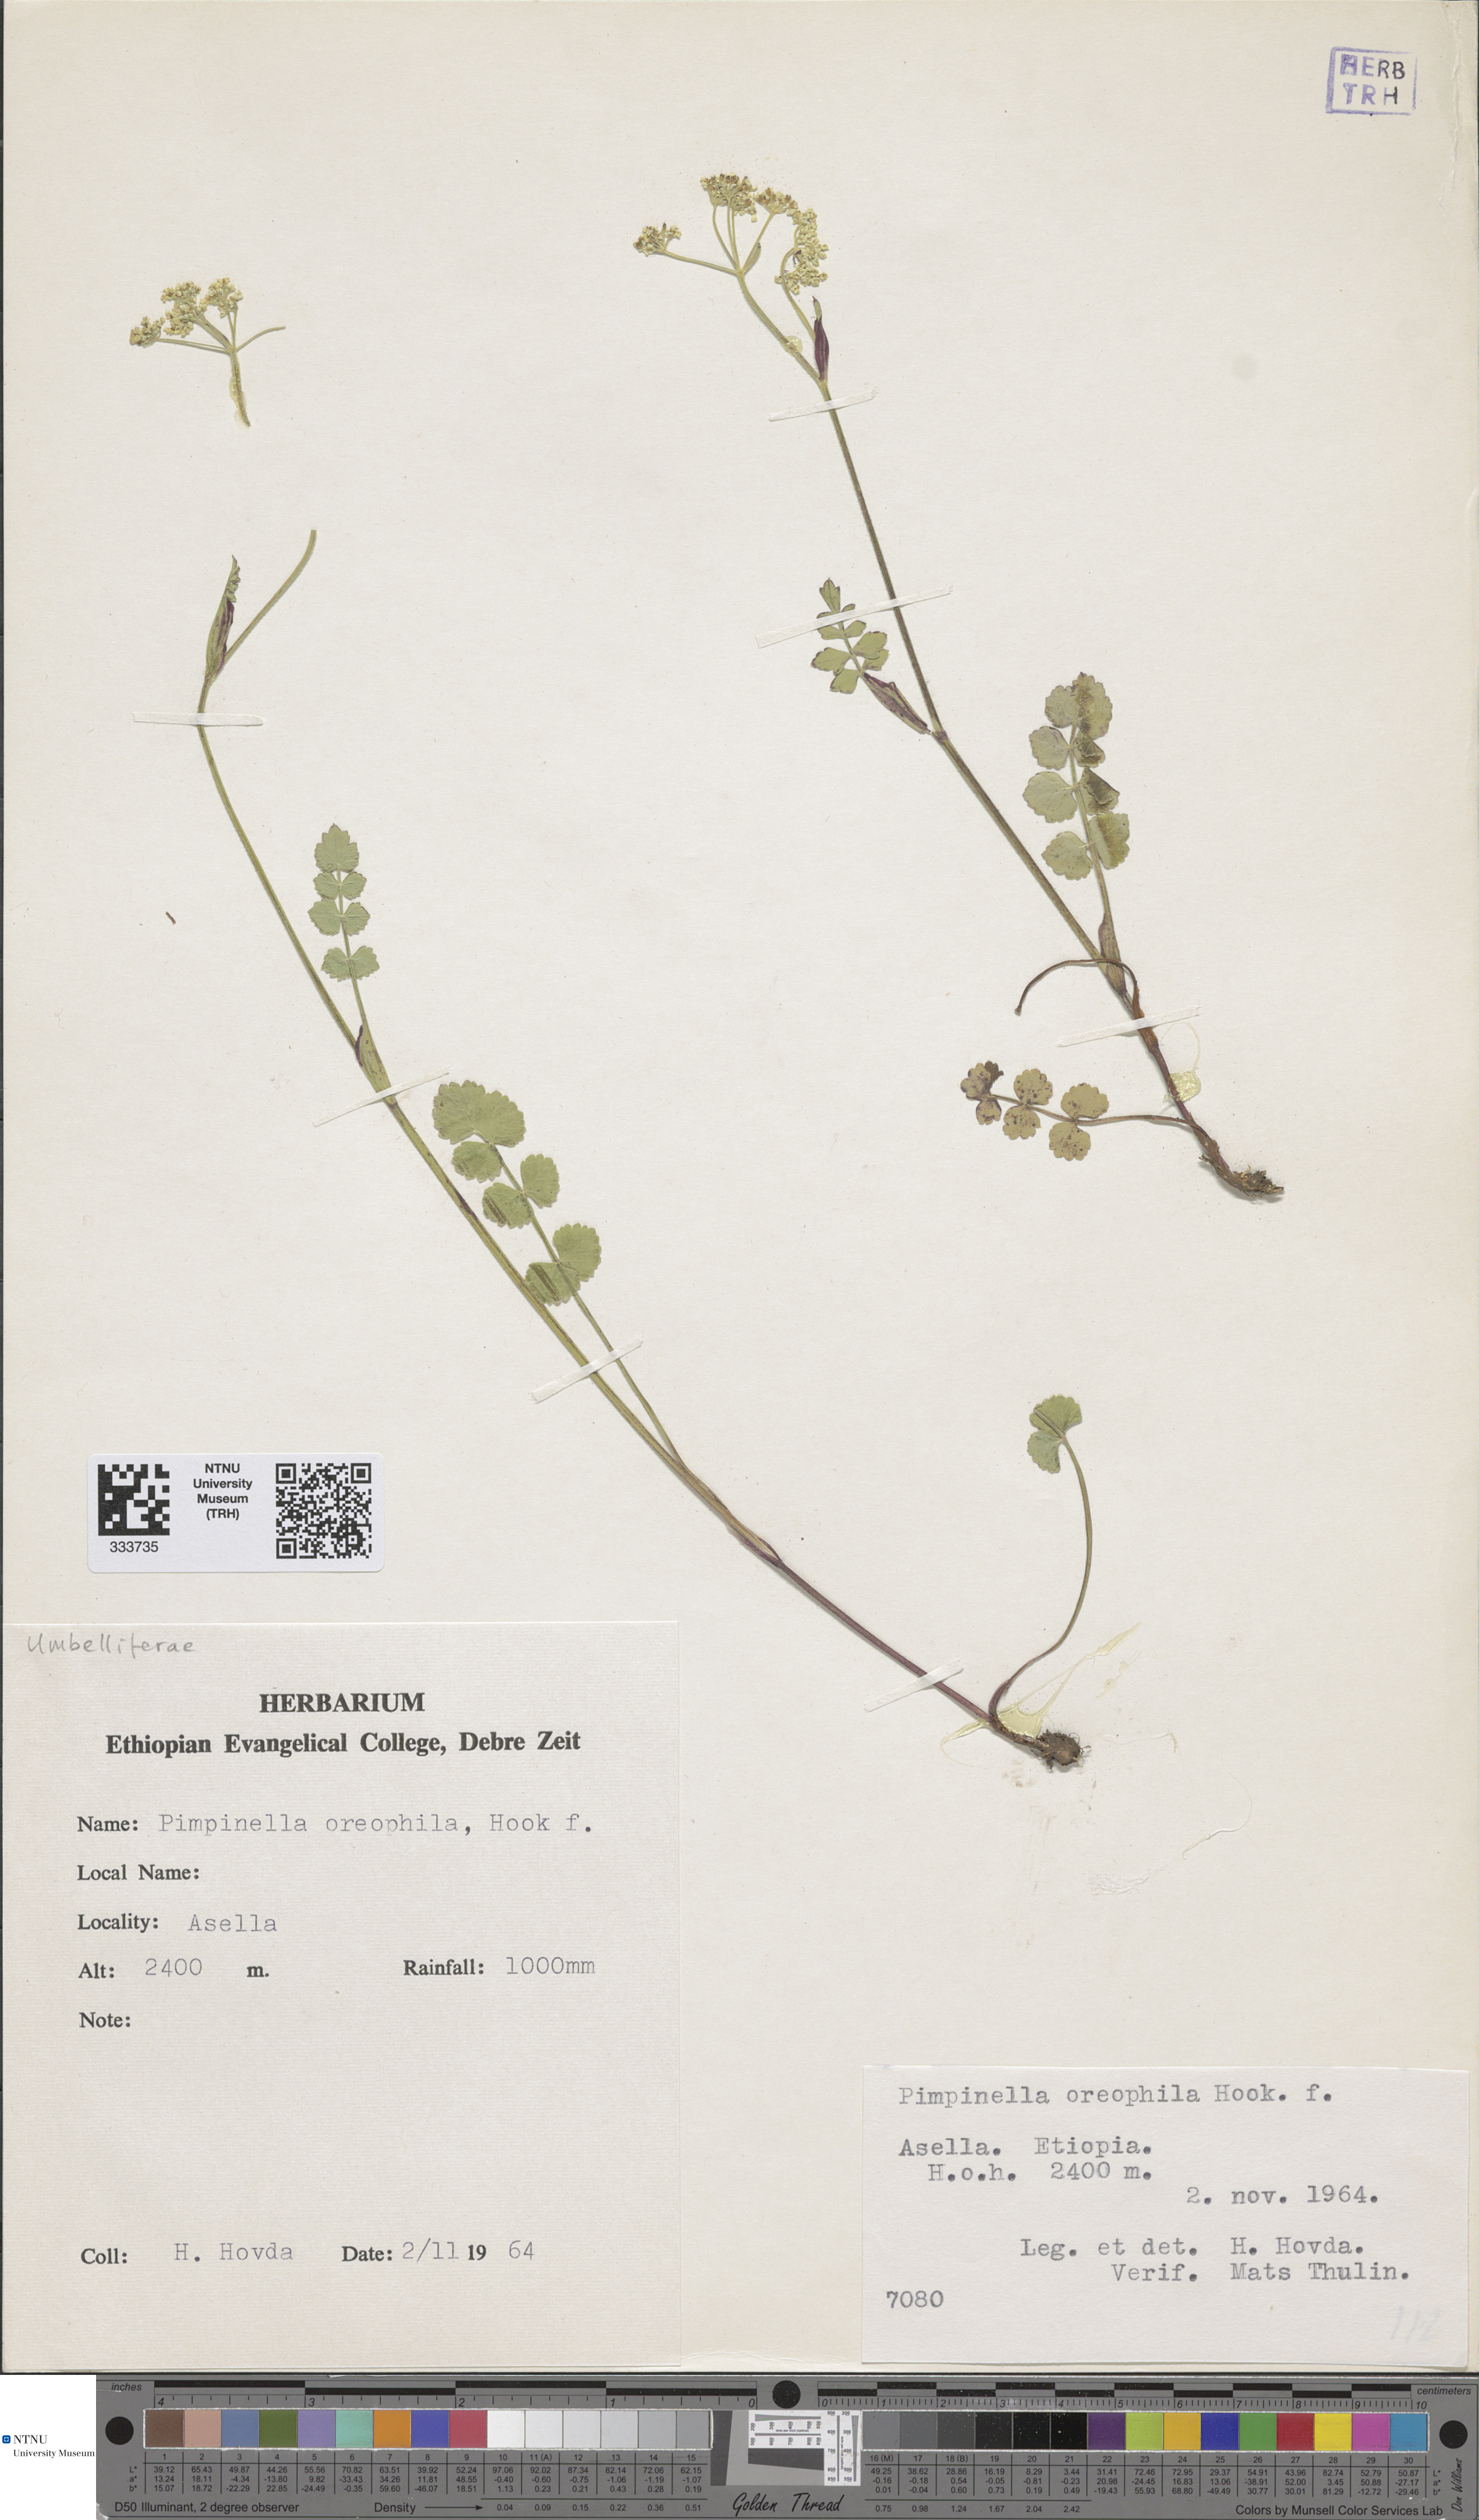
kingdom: Plantae
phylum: Tracheophyta
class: Magnoliopsida
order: Apiales
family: Apiaceae
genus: Pimpinella
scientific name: Pimpinella oreophila
